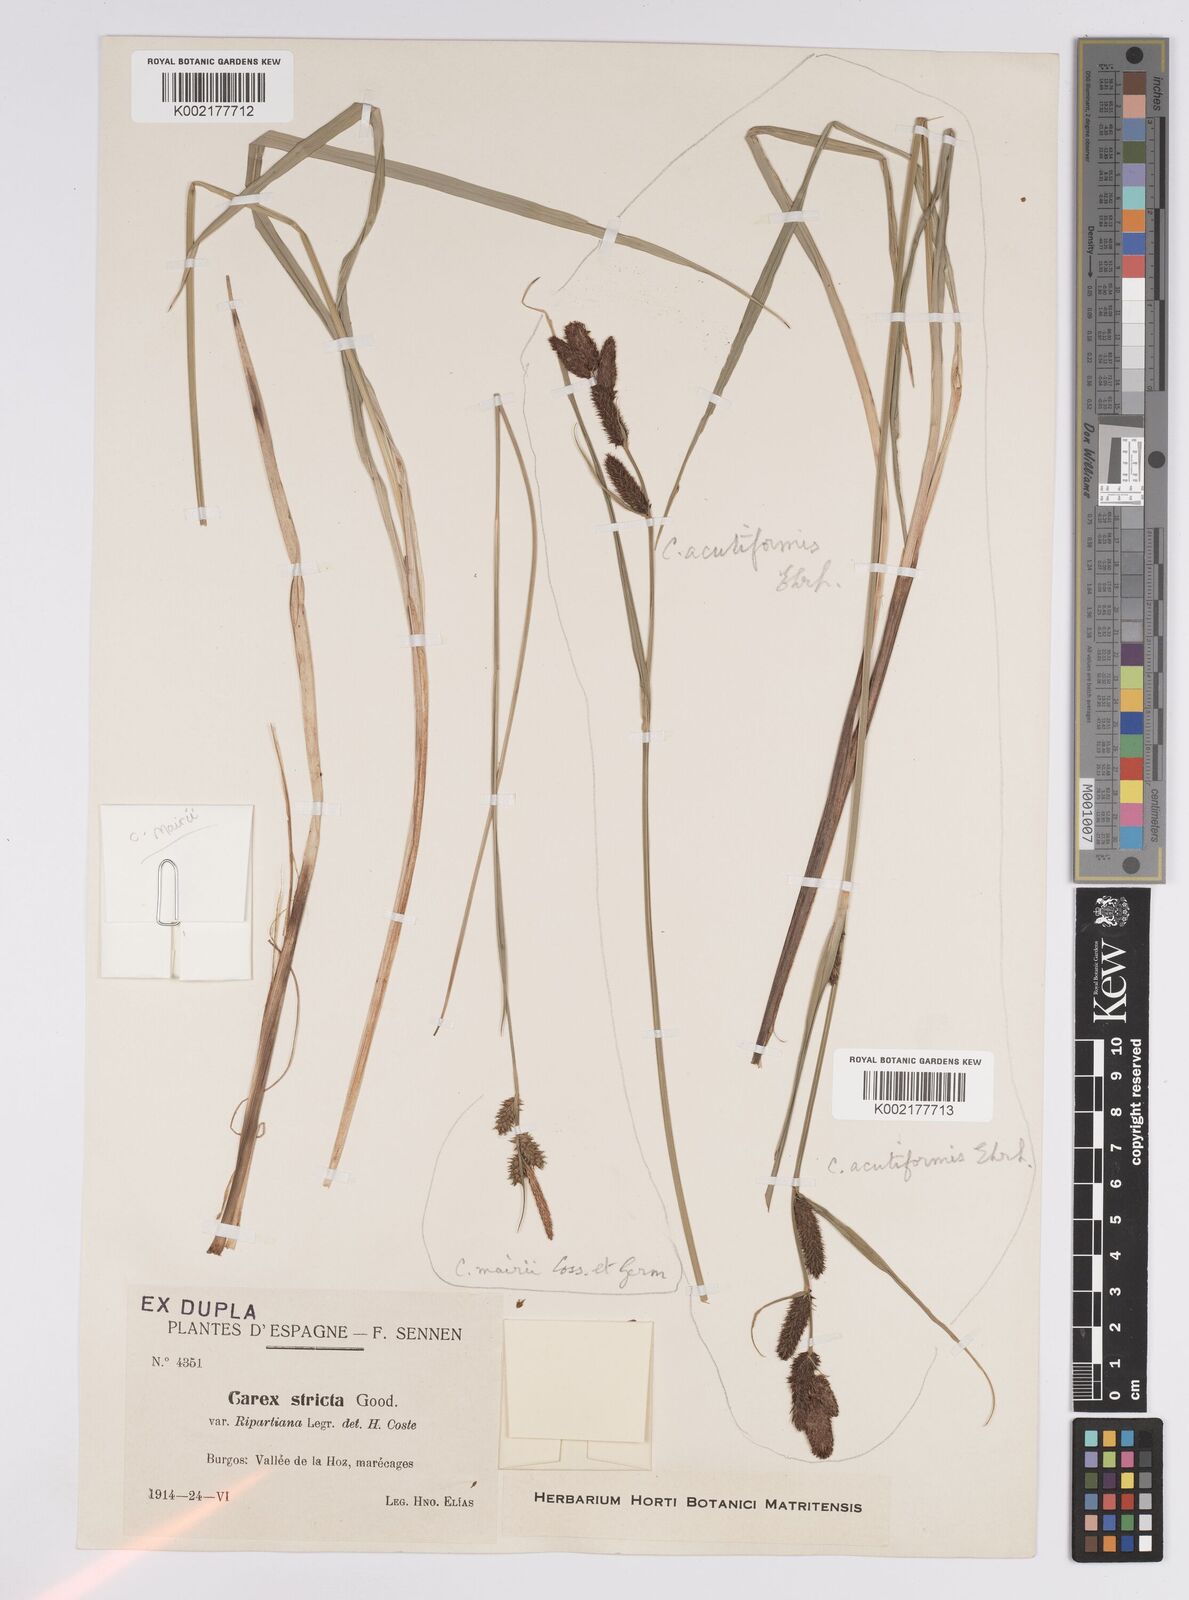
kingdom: Plantae
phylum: Tracheophyta
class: Liliopsida
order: Poales
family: Cyperaceae
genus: Carex
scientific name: Carex mairei
